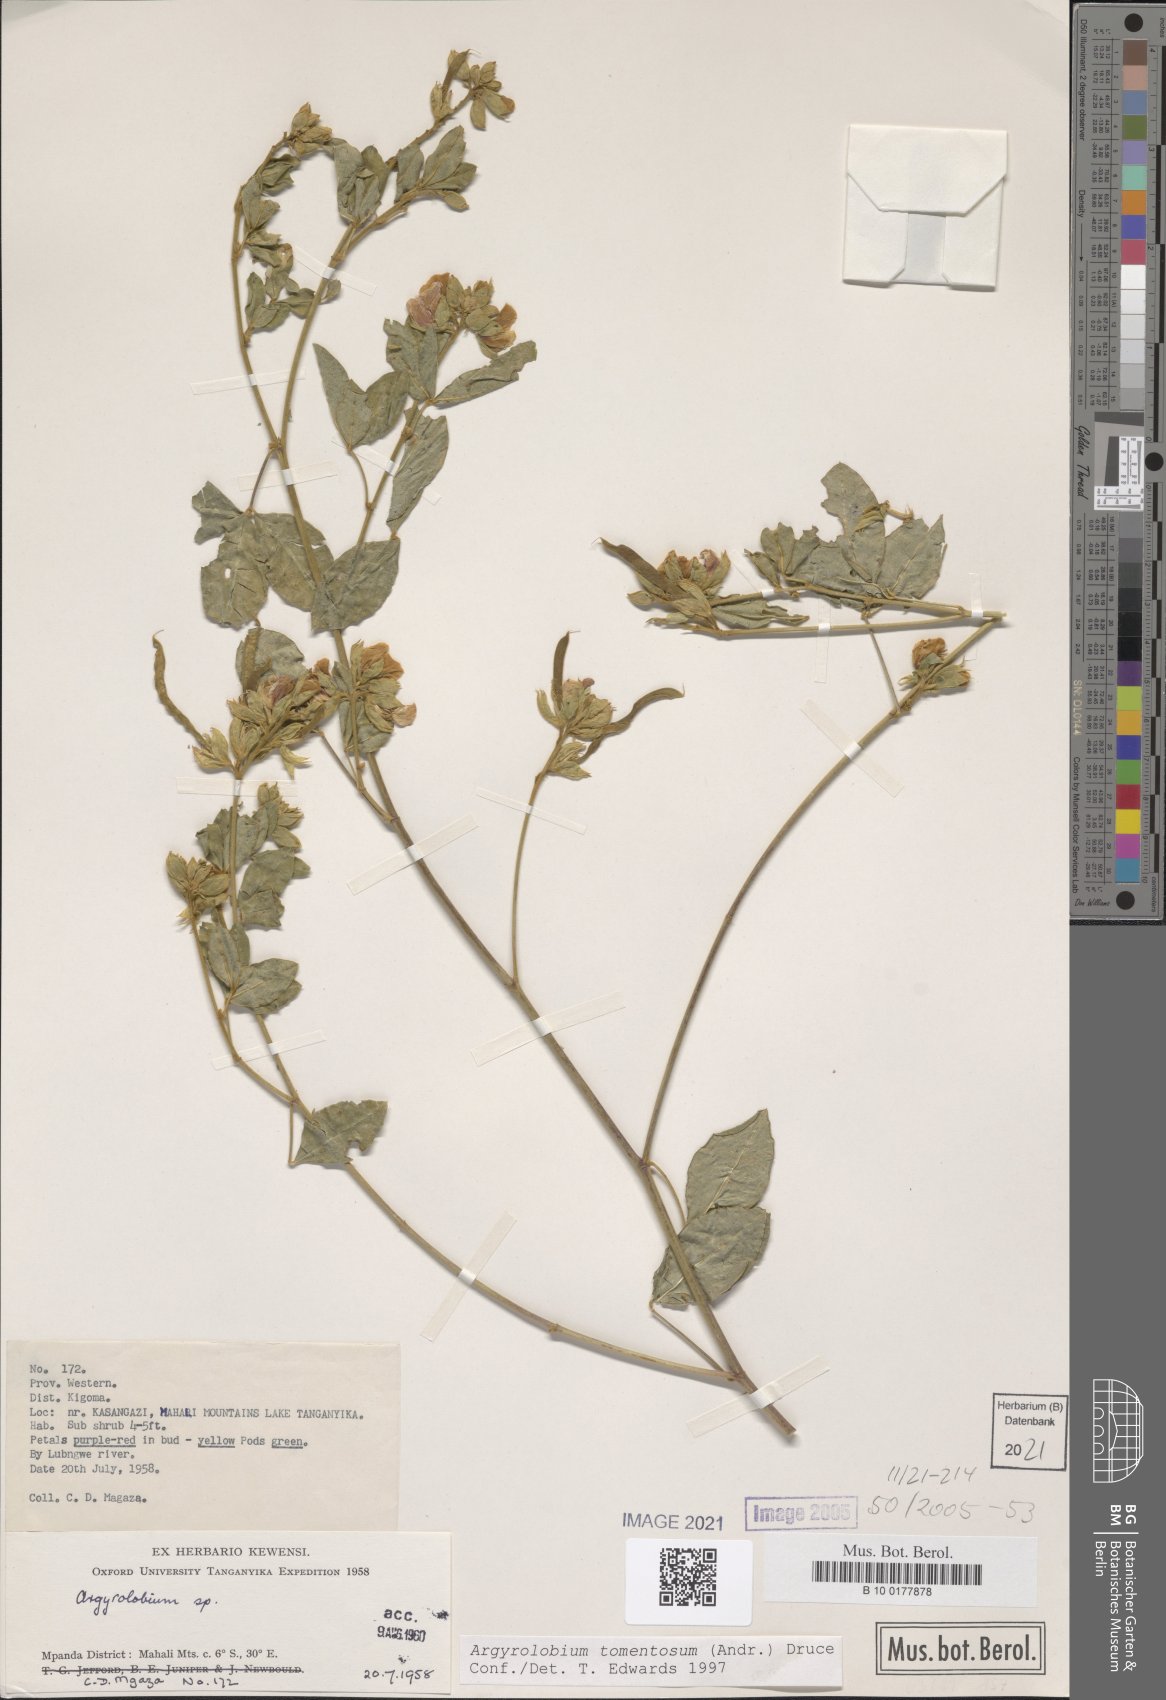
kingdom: Plantae
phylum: Tracheophyta
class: Magnoliopsida
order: Fabales
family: Fabaceae
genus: Argyrolobium
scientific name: Argyrolobium tomentosum
